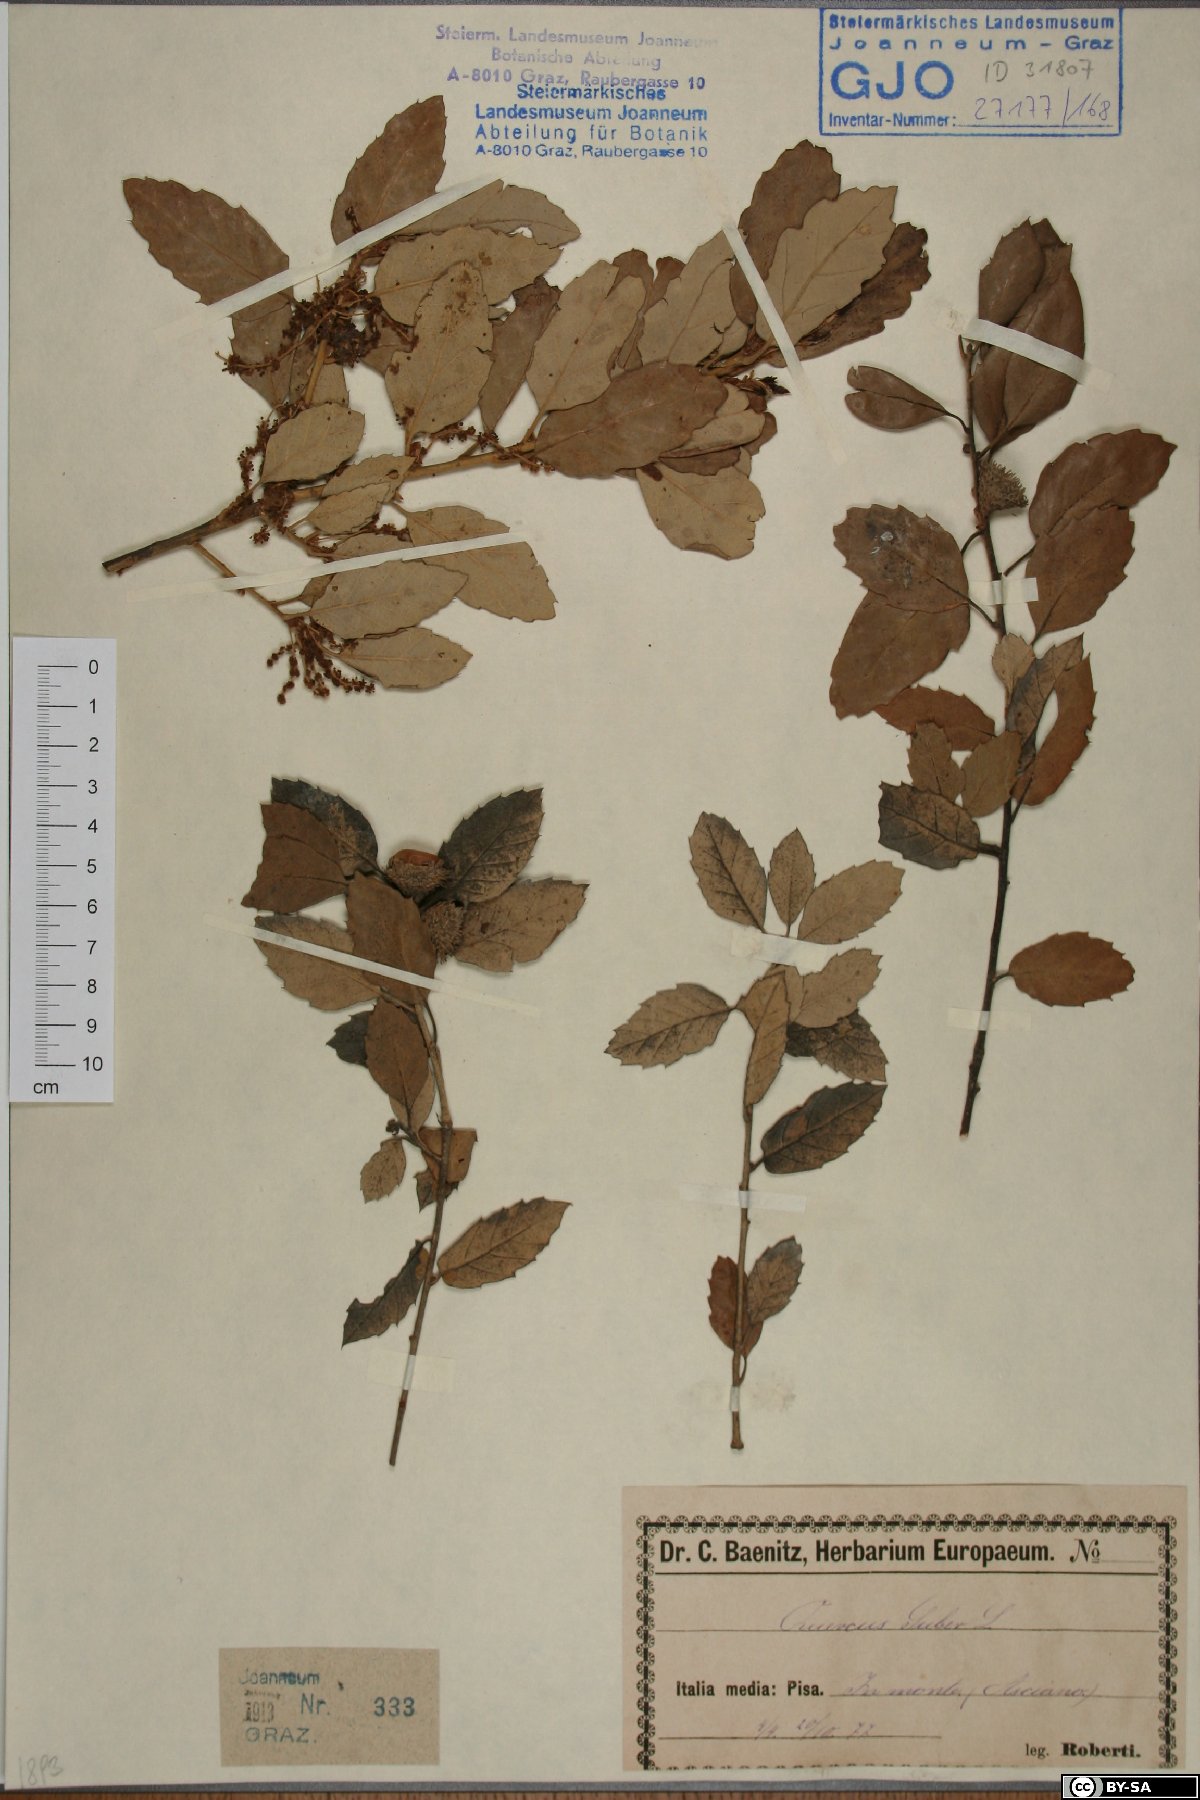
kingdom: Plantae
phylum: Tracheophyta
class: Magnoliopsida
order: Fagales
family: Fagaceae
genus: Quercus
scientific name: Quercus suber
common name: Cork oak
